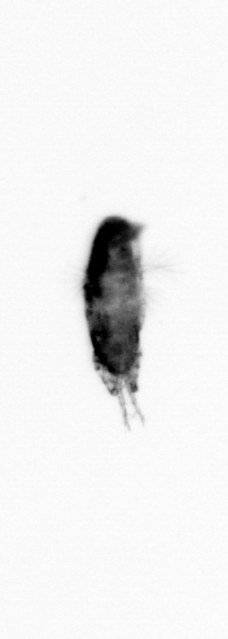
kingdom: Animalia
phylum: Arthropoda
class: Copepoda
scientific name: Copepoda
